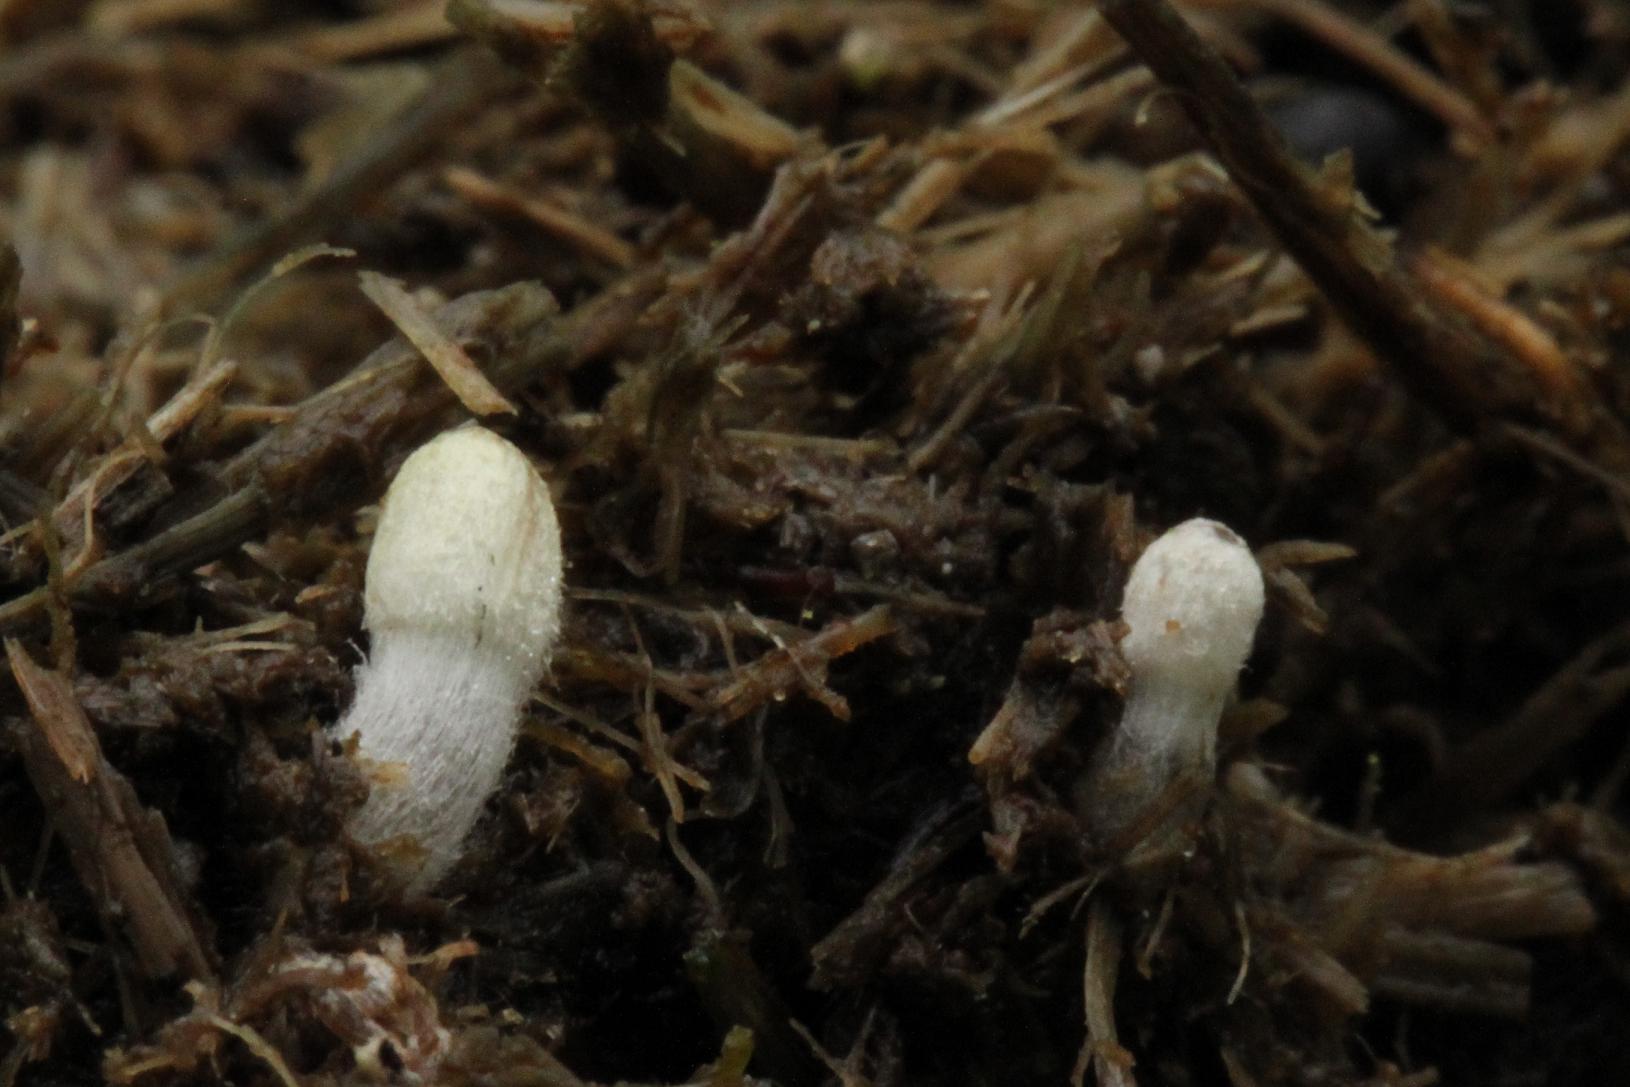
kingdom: Fungi
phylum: Basidiomycota
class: Agaricomycetes
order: Agaricales
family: Psathyrellaceae
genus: Coprinopsis
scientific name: Coprinopsis luteocephala
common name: gullig blækhat
